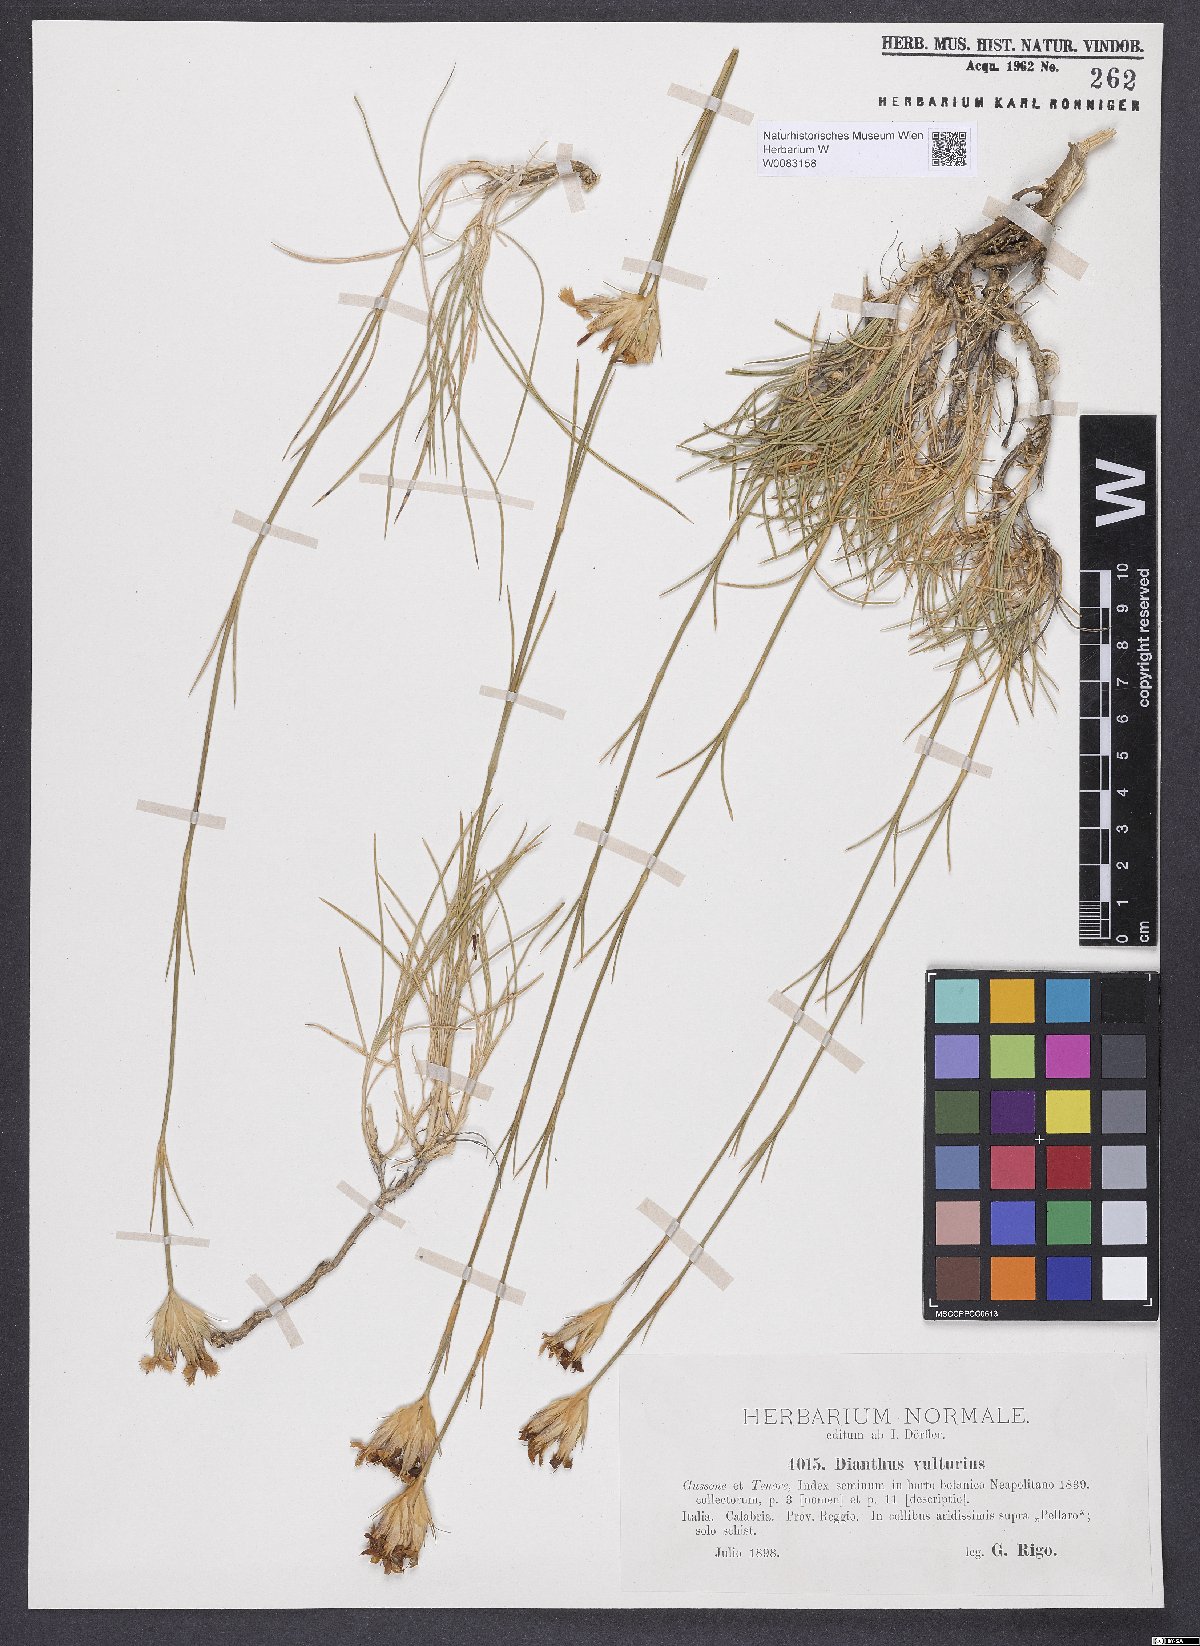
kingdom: Plantae
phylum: Tracheophyta
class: Magnoliopsida
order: Caryophyllales
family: Caryophyllaceae
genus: Dianthus
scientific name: Dianthus vulturius
